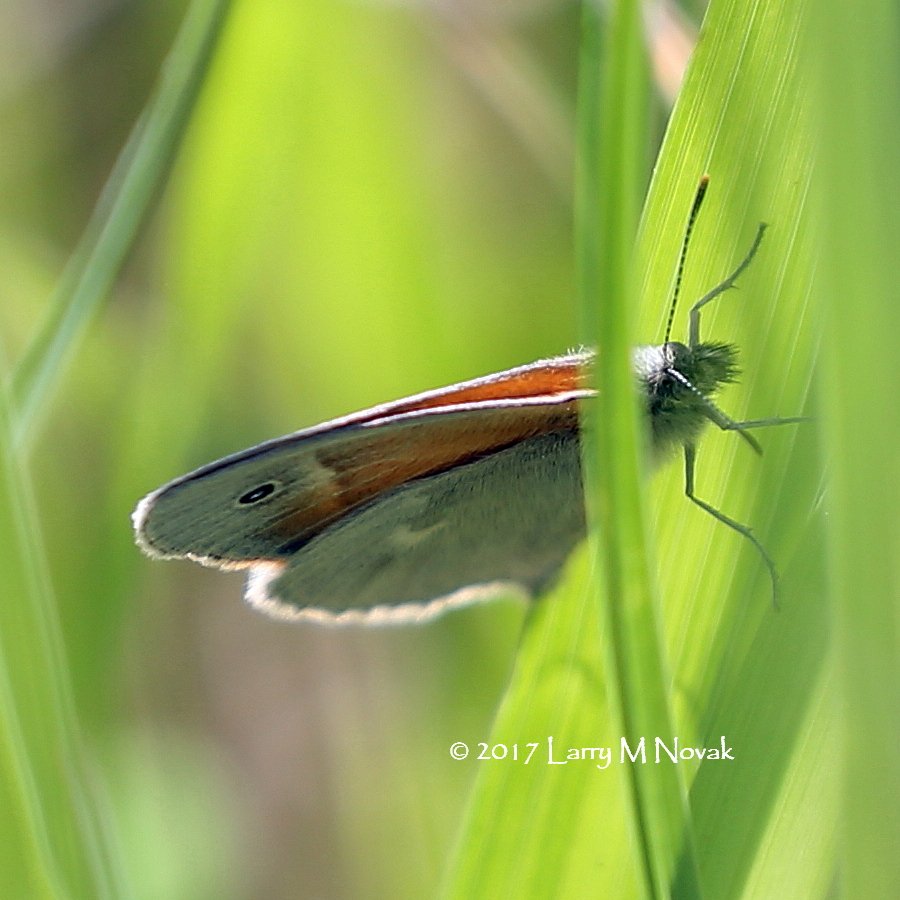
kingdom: Animalia
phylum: Arthropoda
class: Insecta
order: Lepidoptera
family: Nymphalidae
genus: Coenonympha
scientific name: Coenonympha tullia
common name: Large Heath
